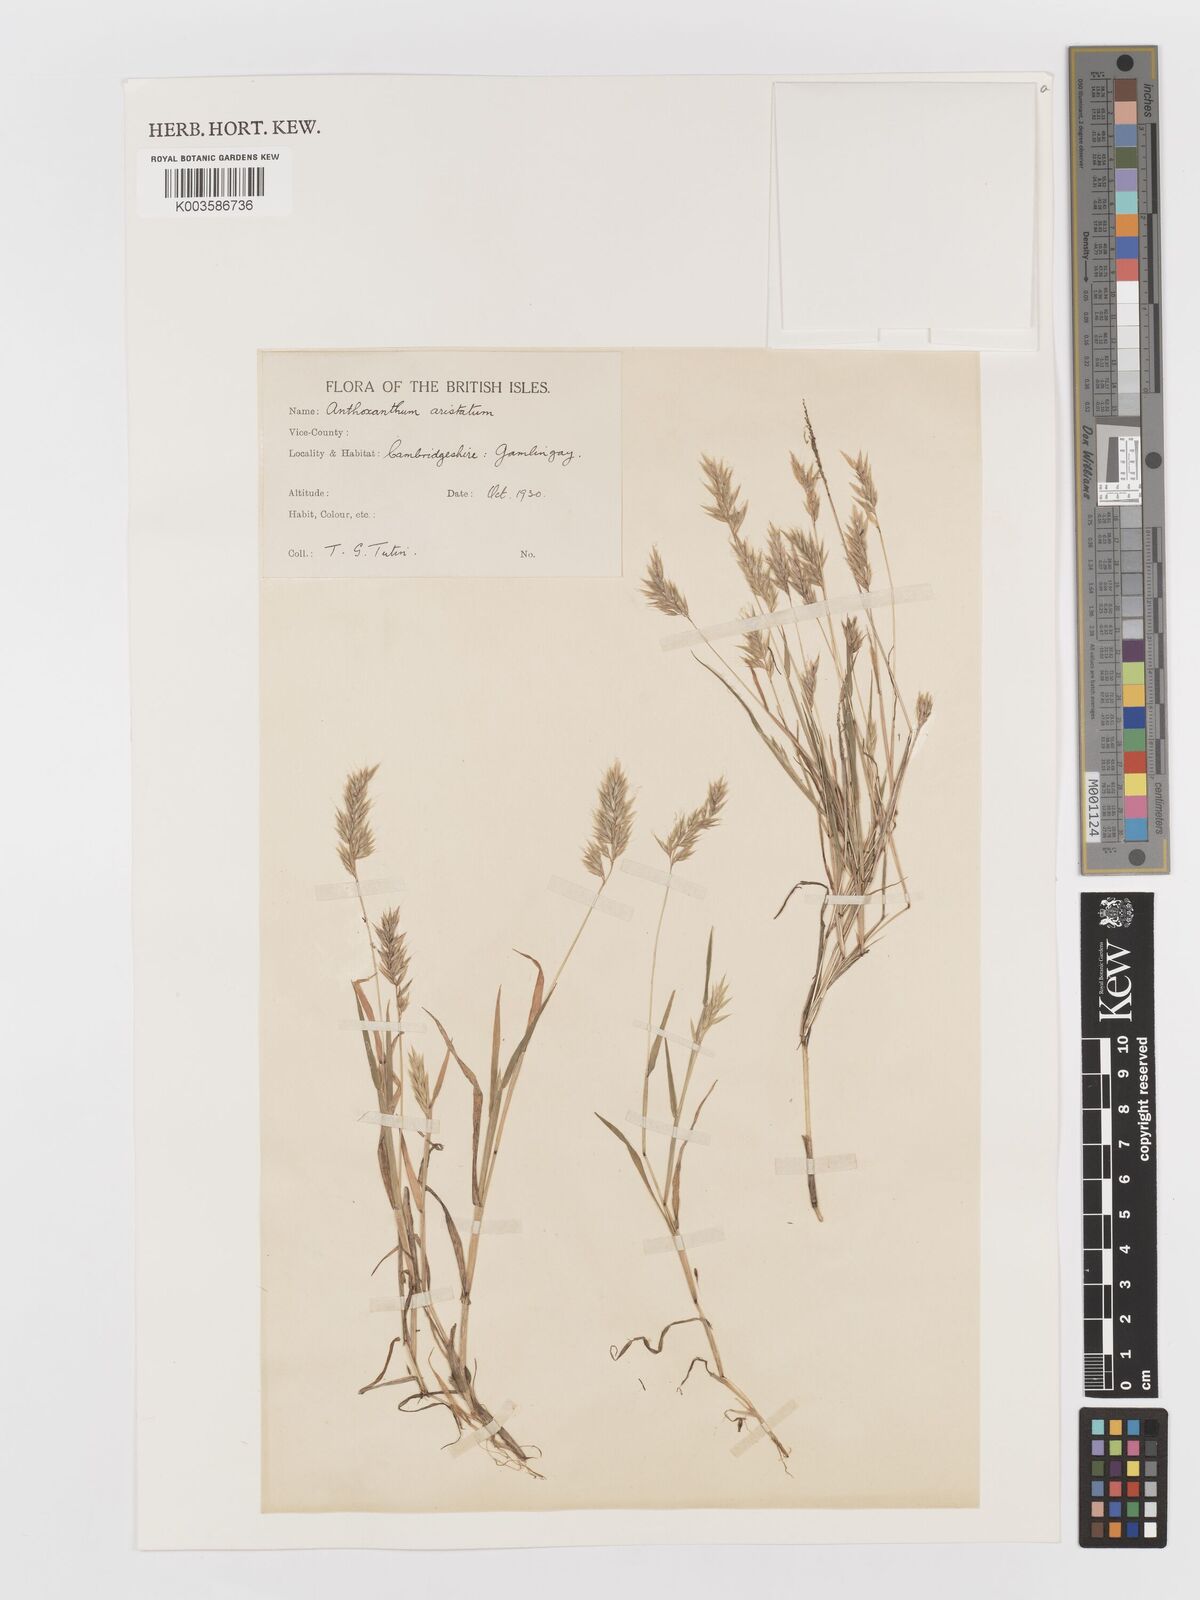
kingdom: Plantae
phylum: Tracheophyta
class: Liliopsida
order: Poales
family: Poaceae
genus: Anthoxanthum
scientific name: Anthoxanthum aristatum
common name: Annual vernal-grass
